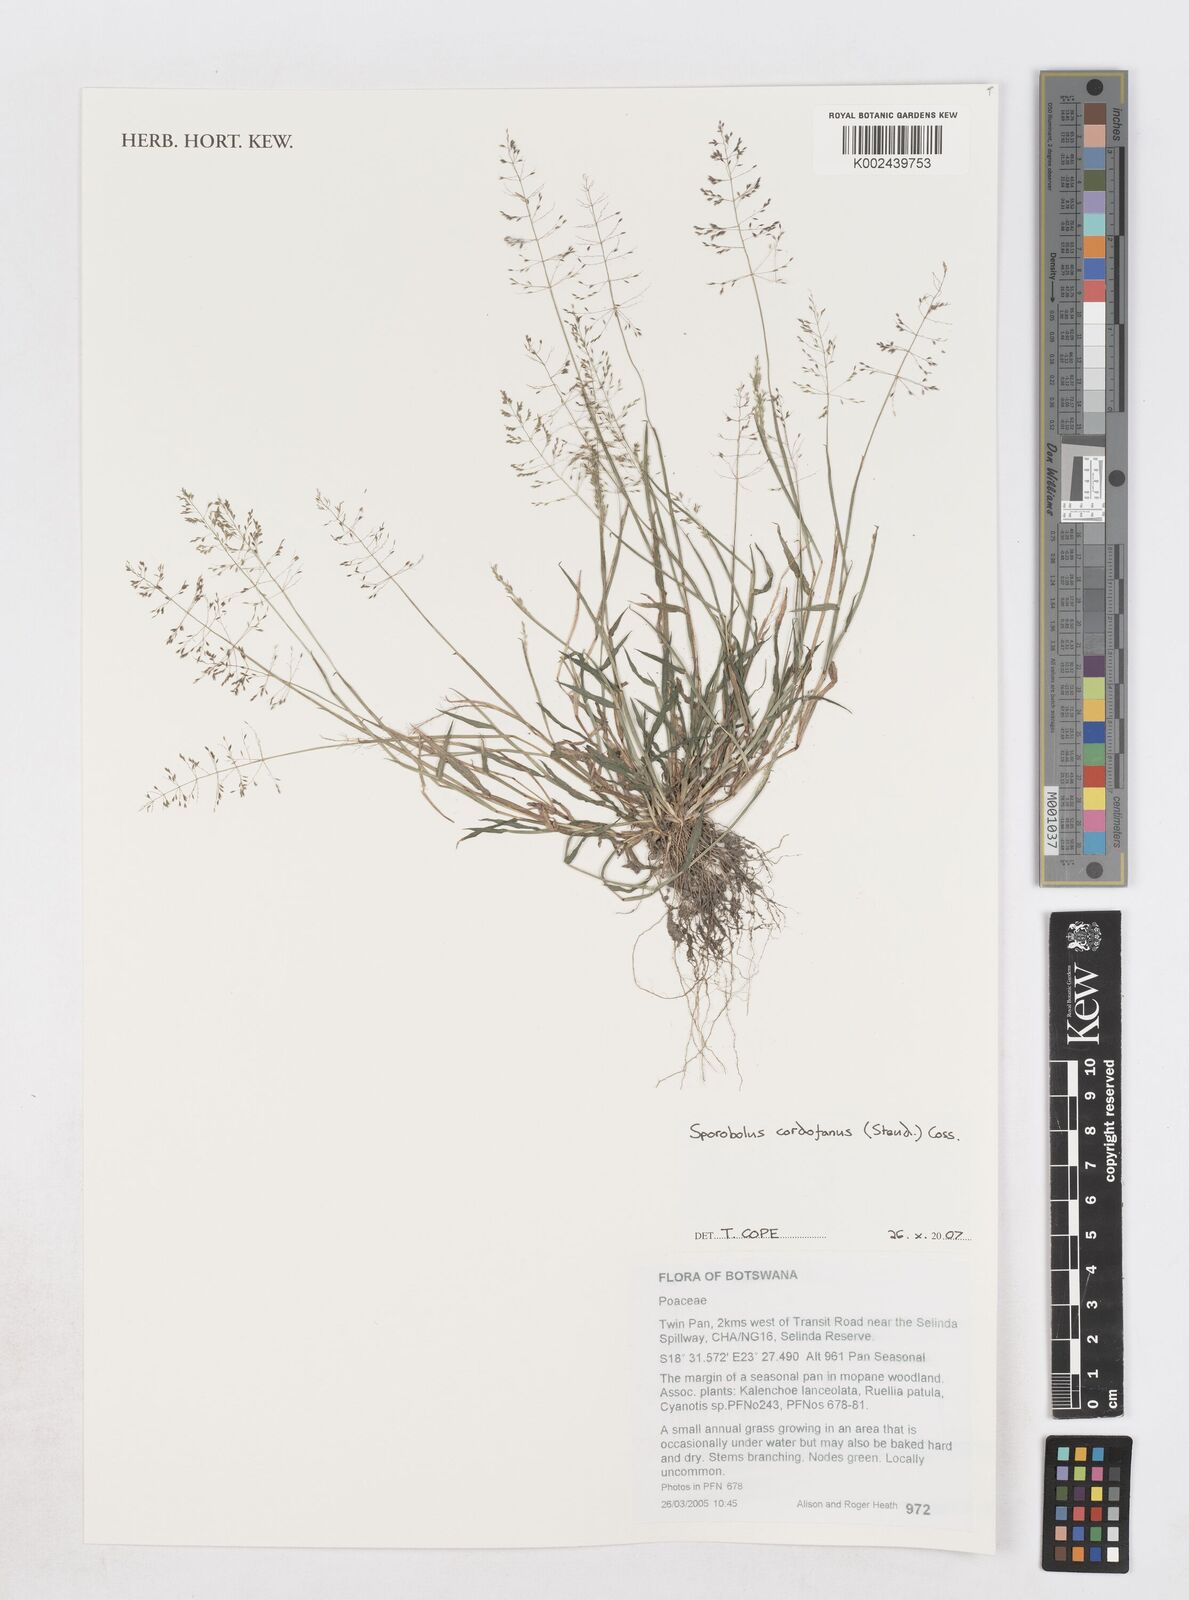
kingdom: Plantae
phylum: Tracheophyta
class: Liliopsida
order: Poales
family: Poaceae
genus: Sporobolus
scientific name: Sporobolus cordofanus
